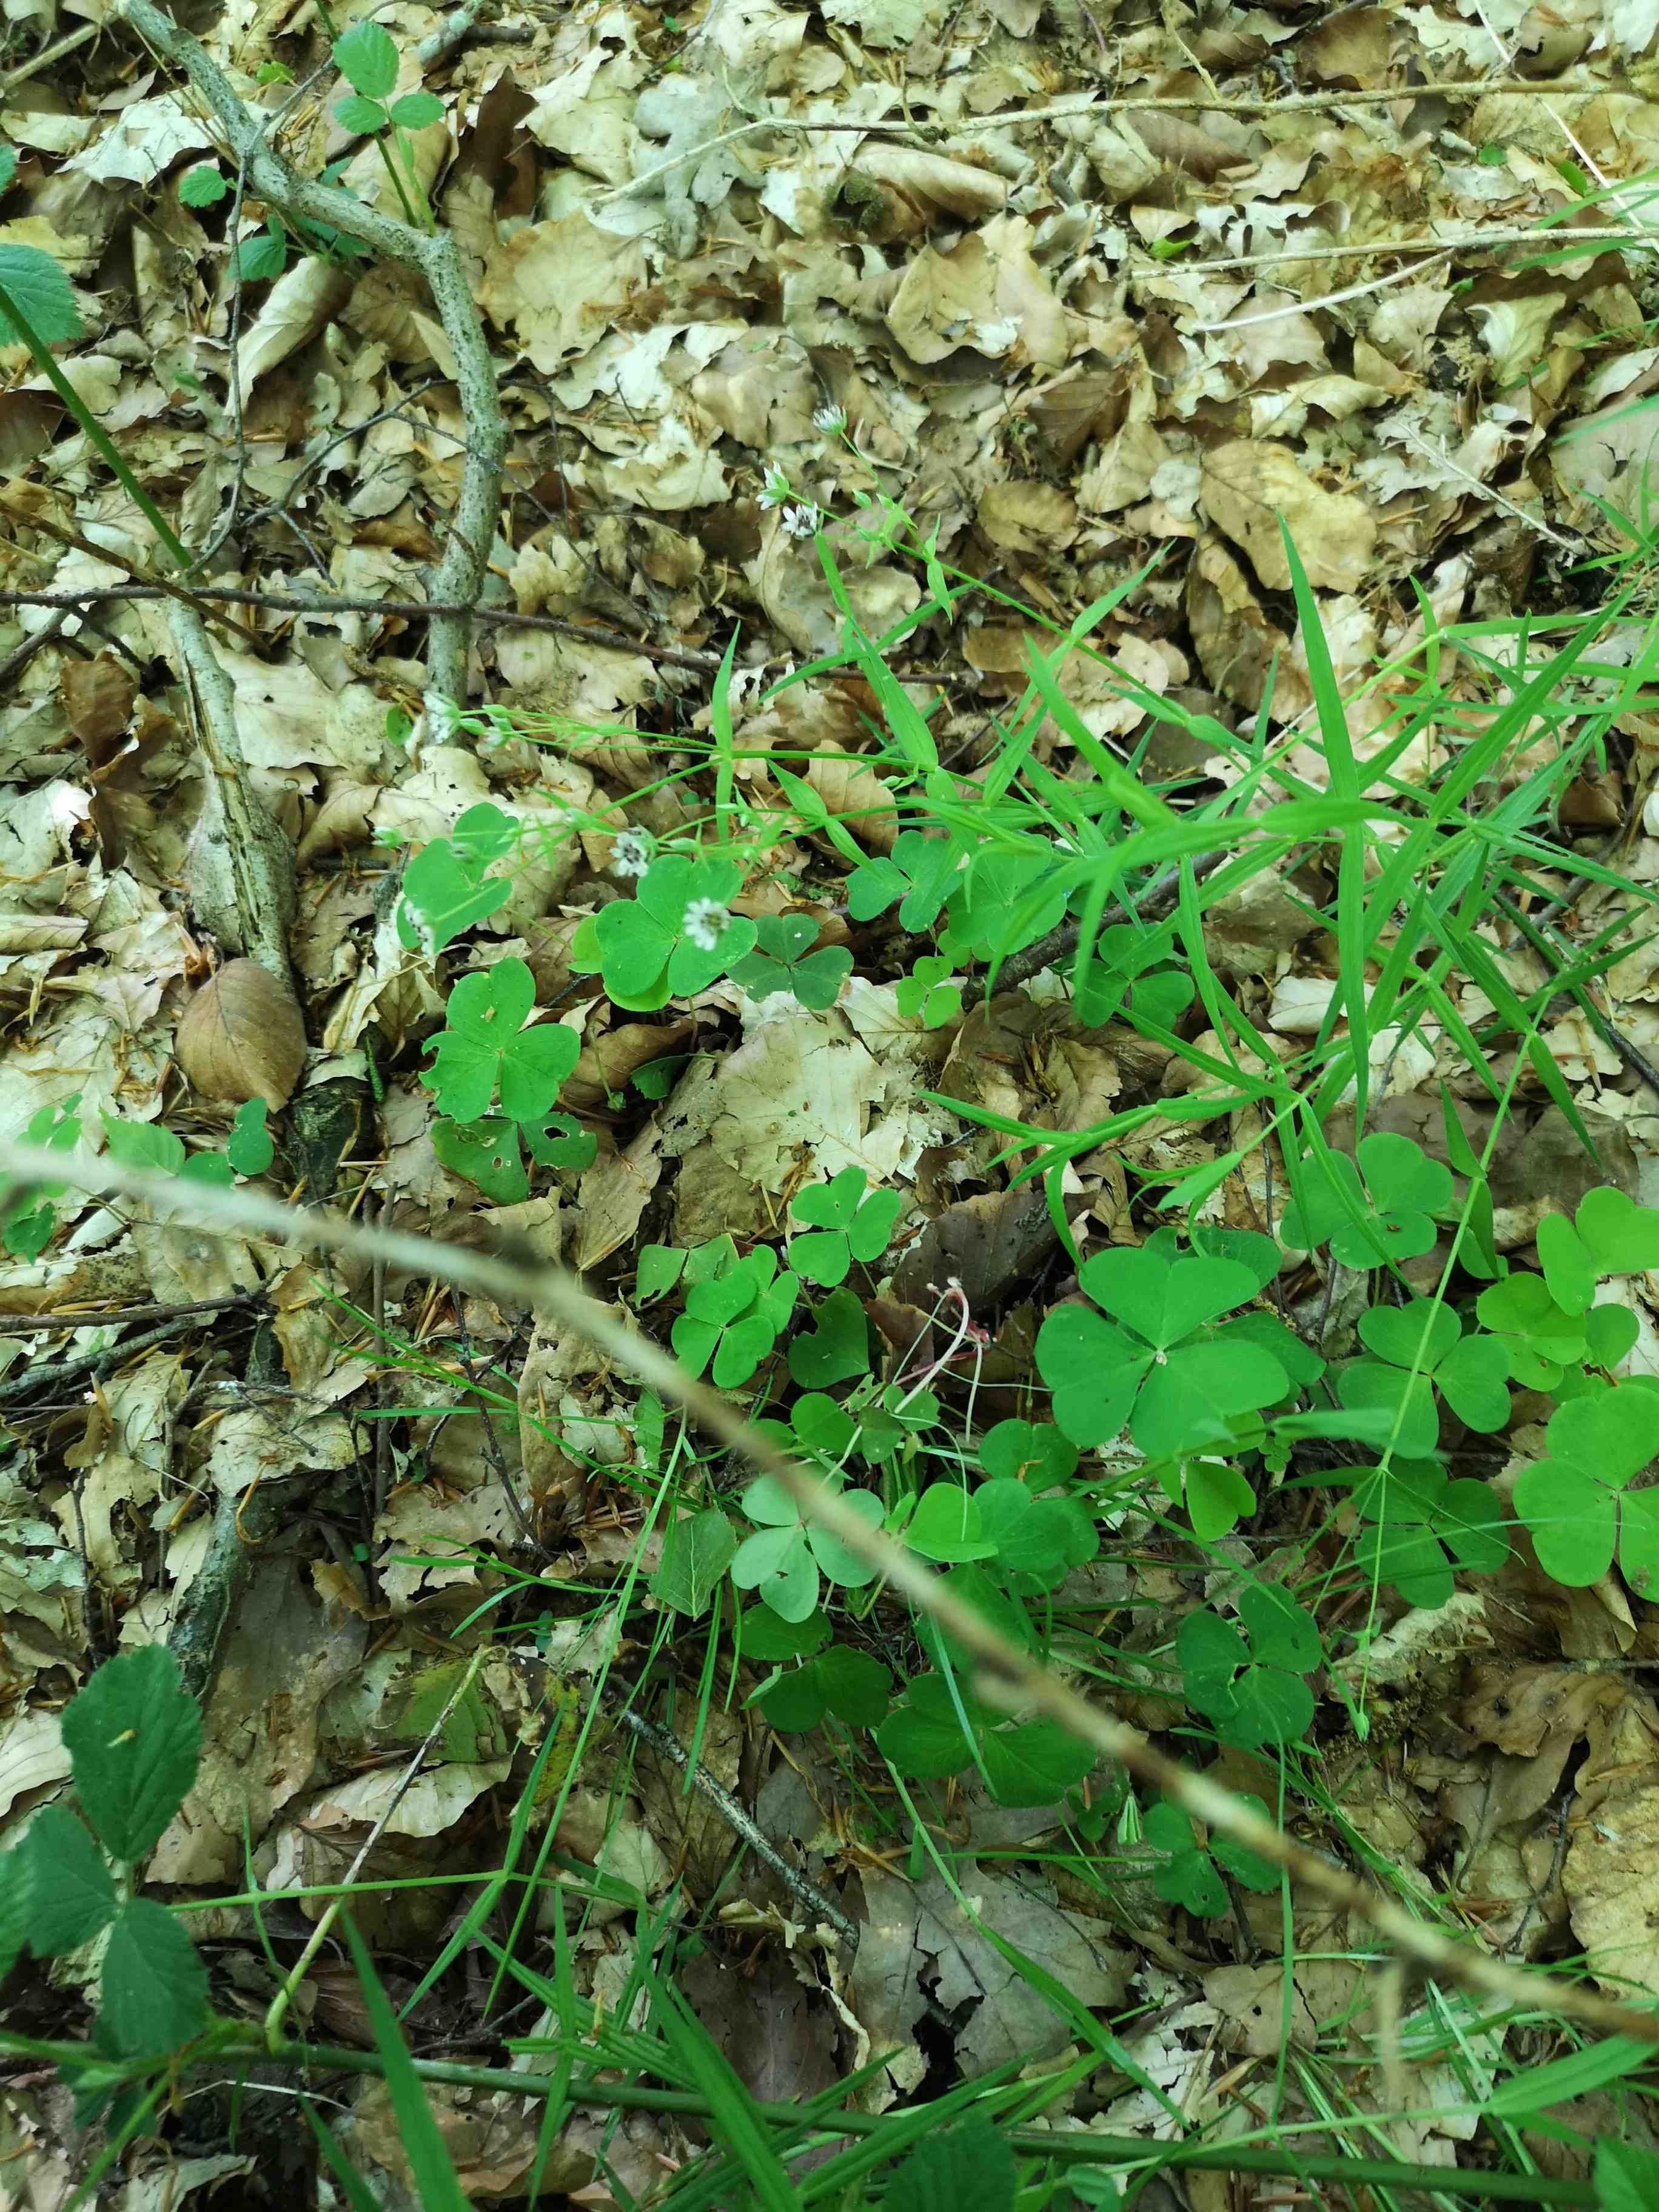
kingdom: Fungi
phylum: Basidiomycota
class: Microbotryomycetes
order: Microbotryales
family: Microbotryaceae
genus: Microbotryum
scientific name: Microbotryum stellariae
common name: fladstjerne-støvbladrust
